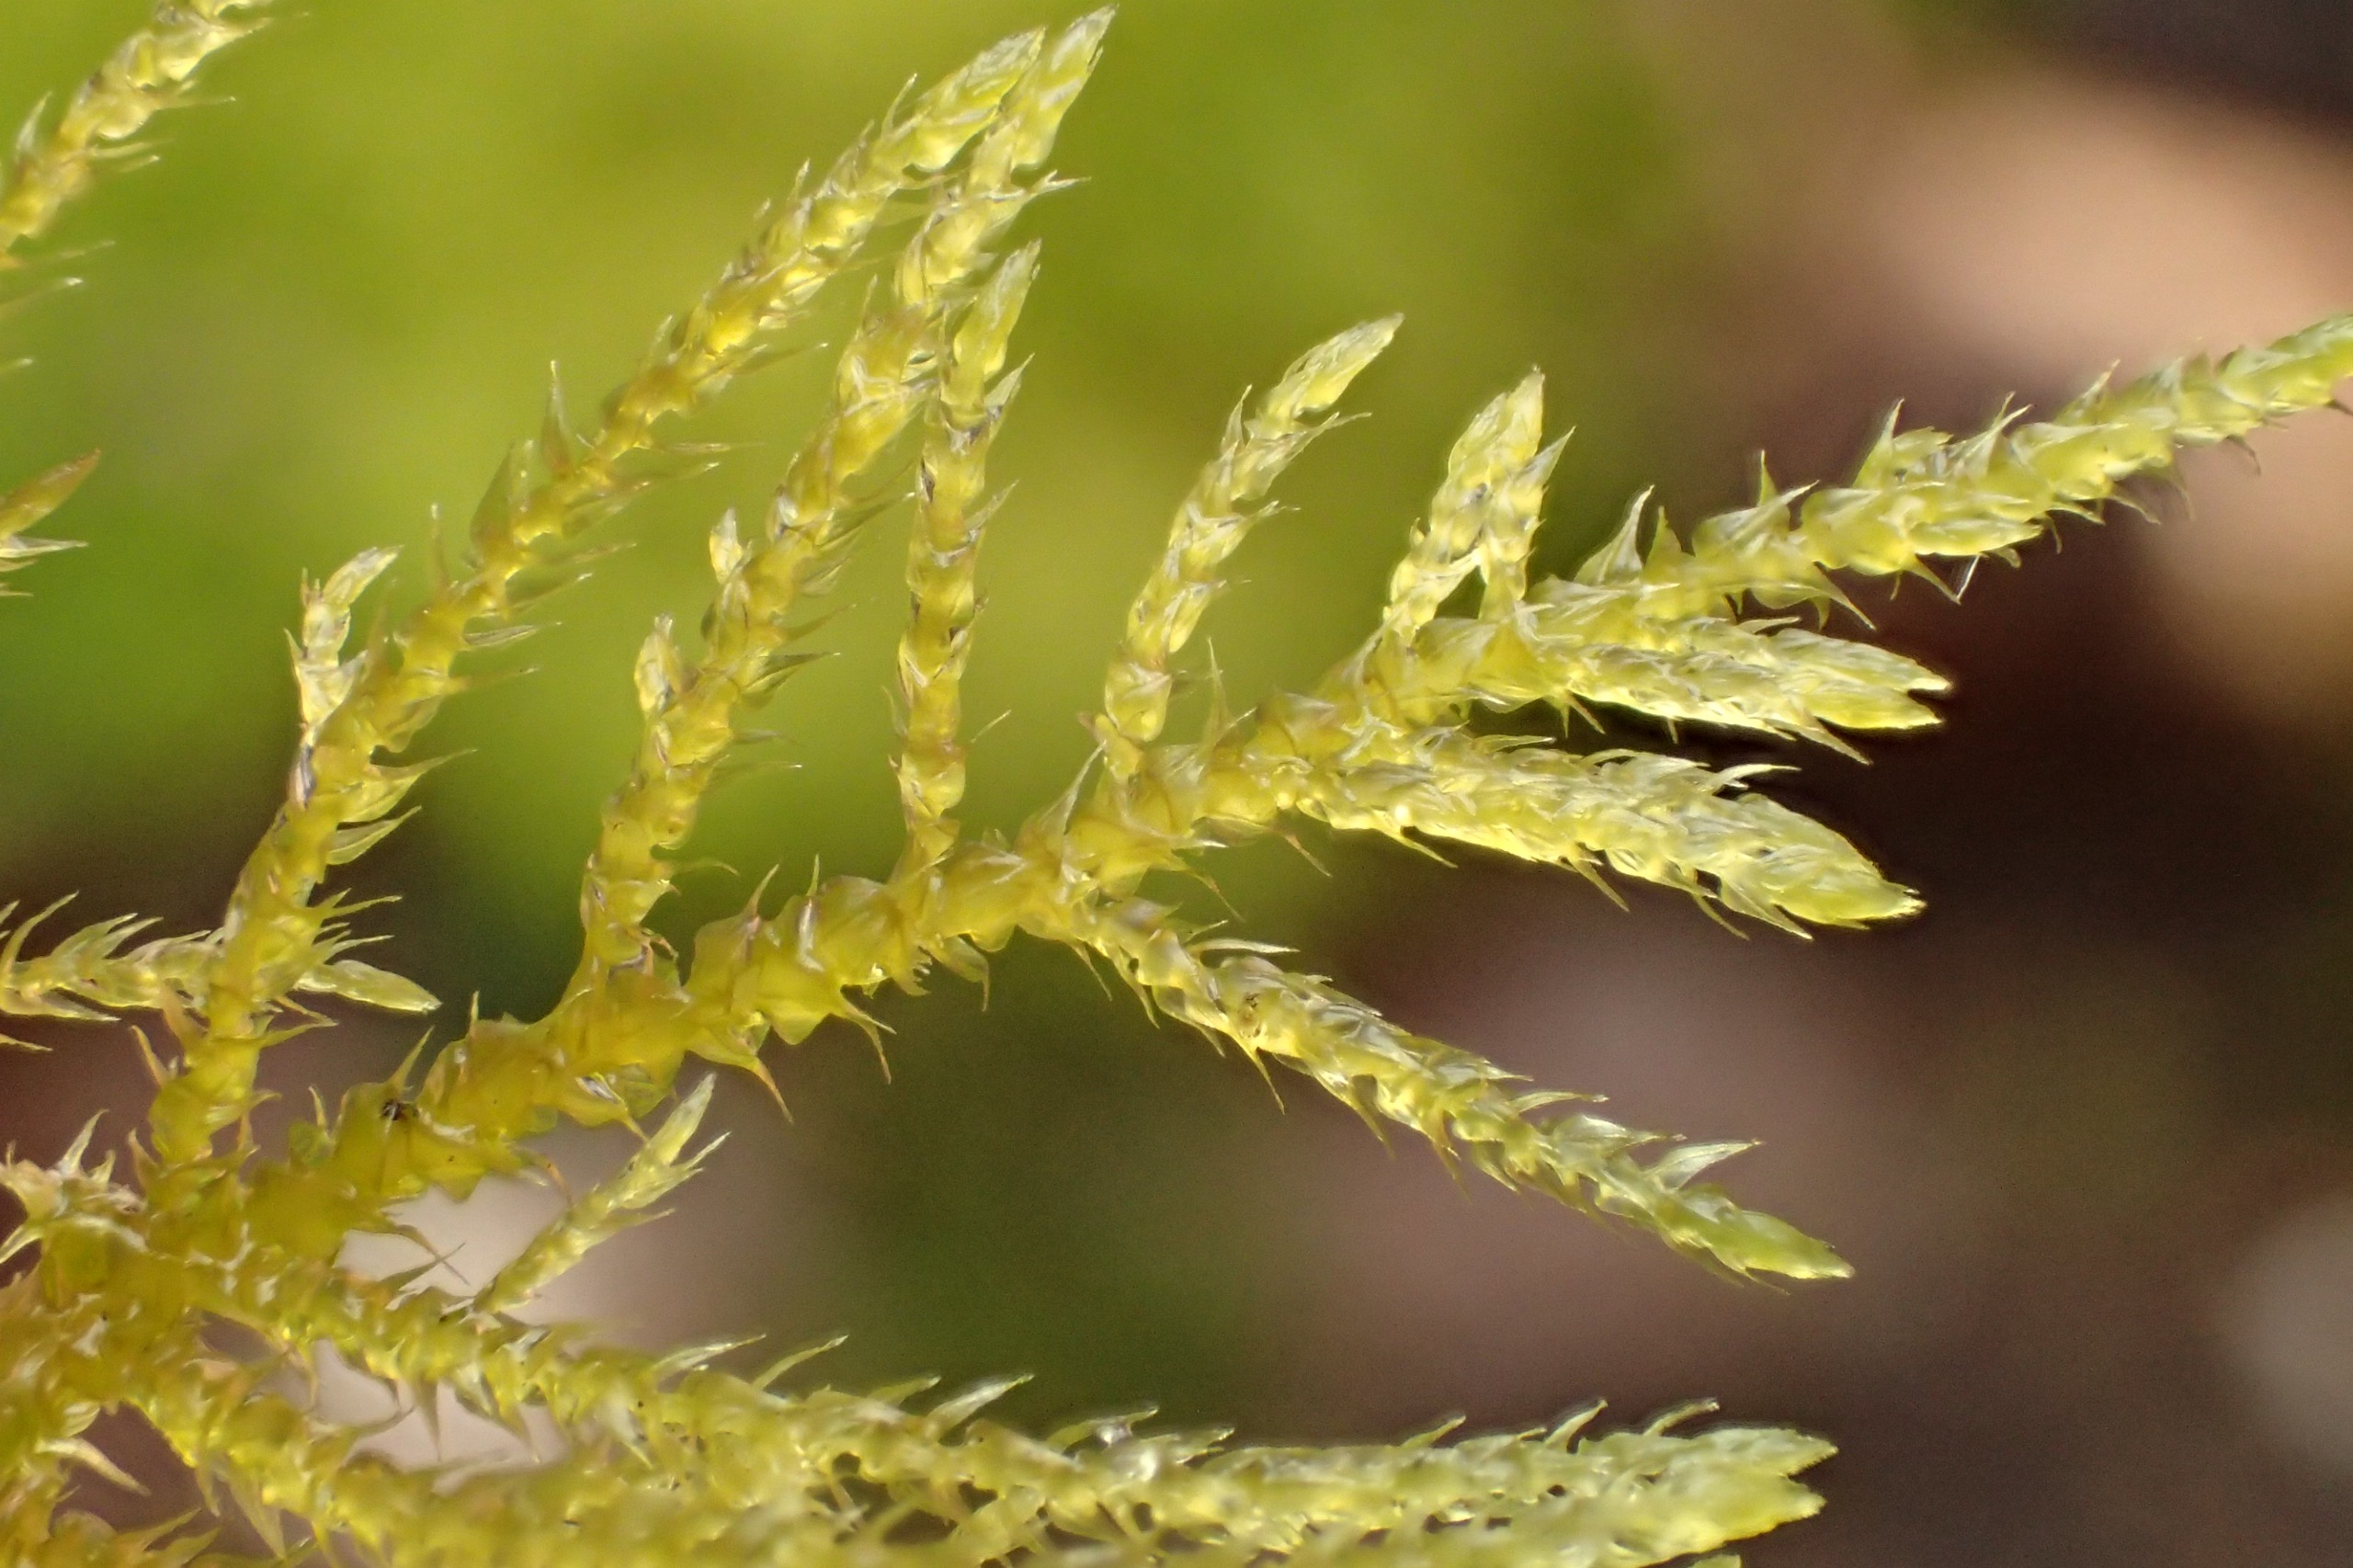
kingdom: Plantae
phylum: Bryophyta
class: Bryopsida
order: Hypnales
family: Brachytheciaceae
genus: Kindbergia
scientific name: Kindbergia praelonga
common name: Forskelligbladet vortetand
